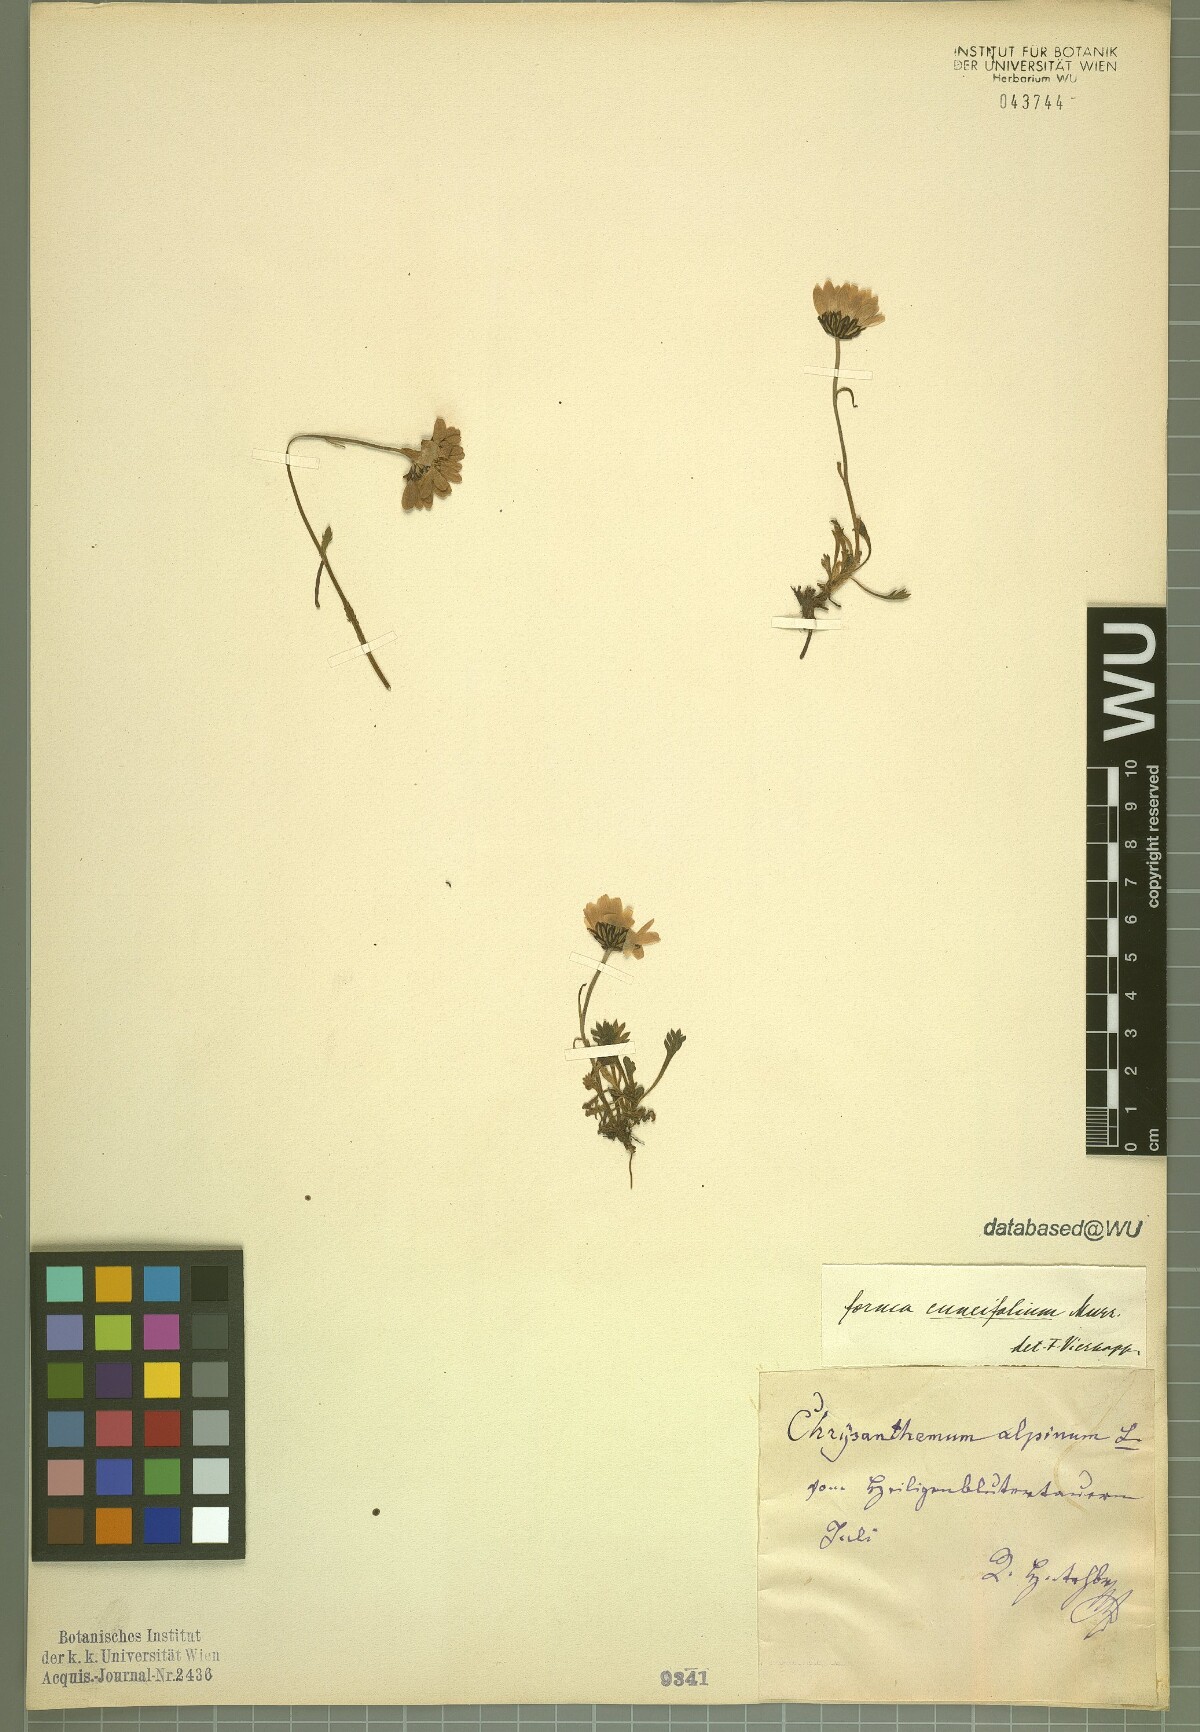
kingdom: Plantae
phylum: Tracheophyta
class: Magnoliopsida
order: Asterales
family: Asteraceae
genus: Leucanthemopsis
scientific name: Leucanthemopsis alpina
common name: Alpine moon daisy
